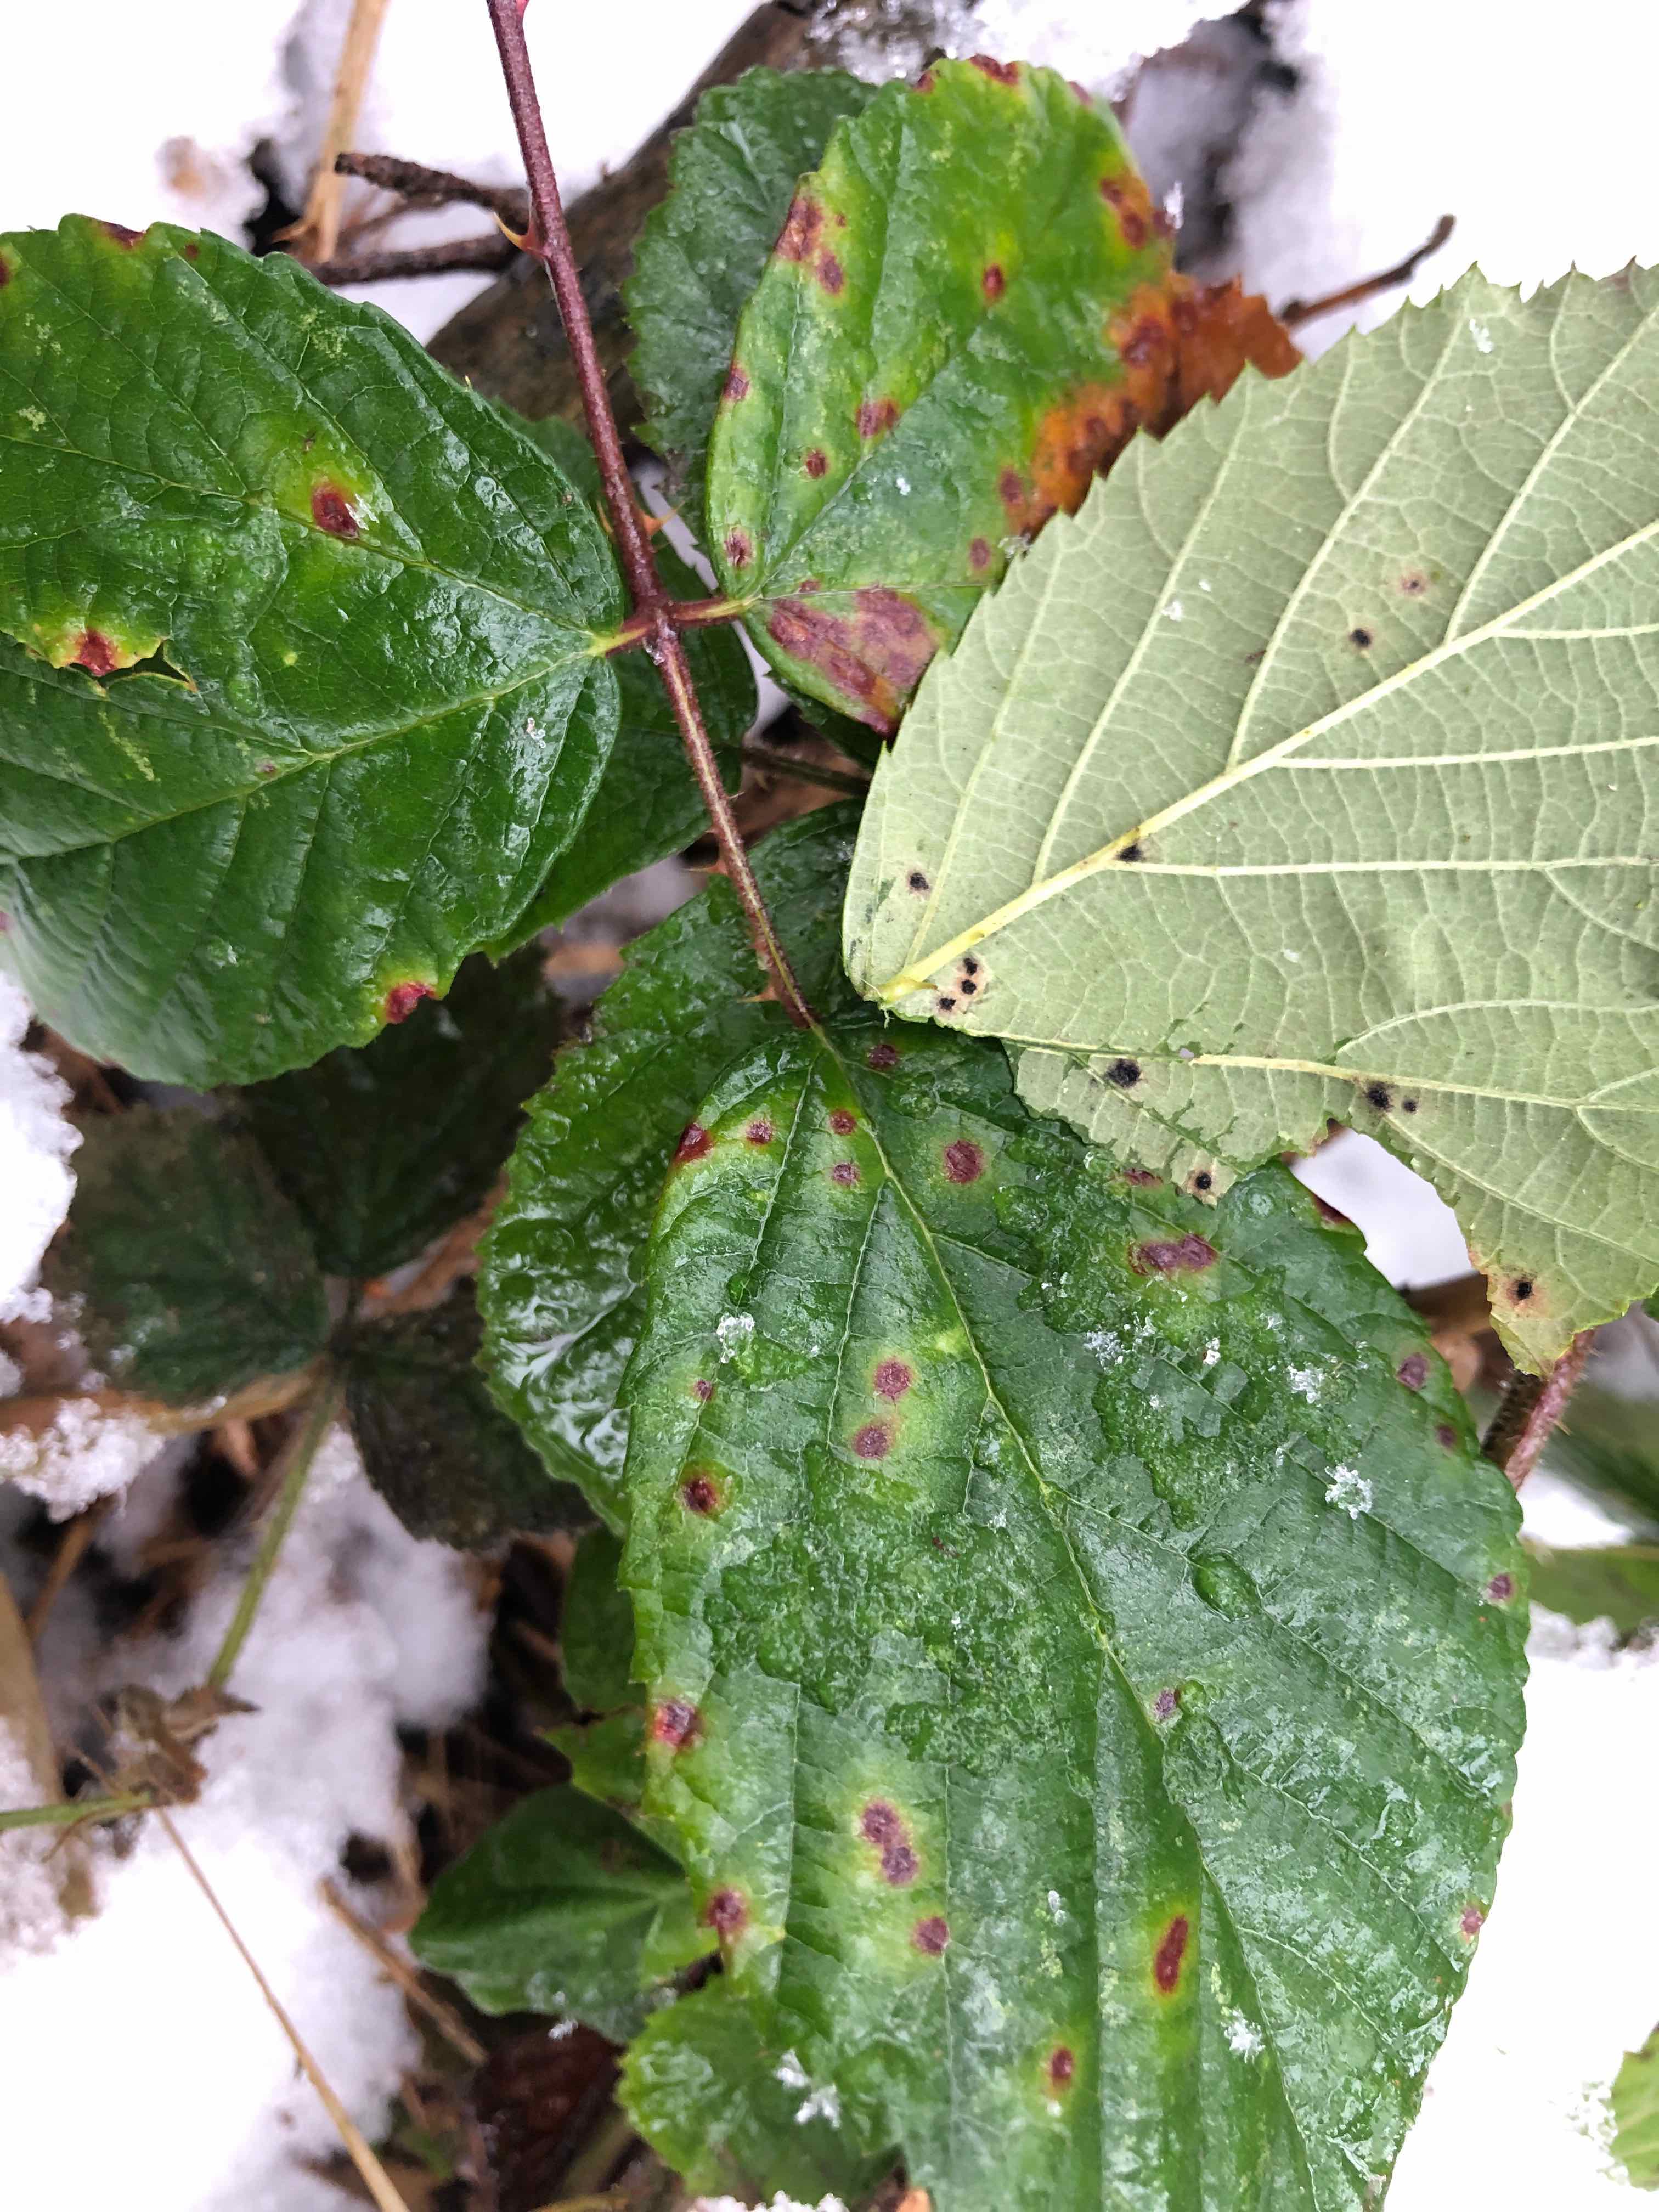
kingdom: Fungi
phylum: Basidiomycota
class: Pucciniomycetes
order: Pucciniales
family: Phragmidiaceae
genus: Phragmidium
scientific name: Phragmidium violaceum
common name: violet flercellerust
